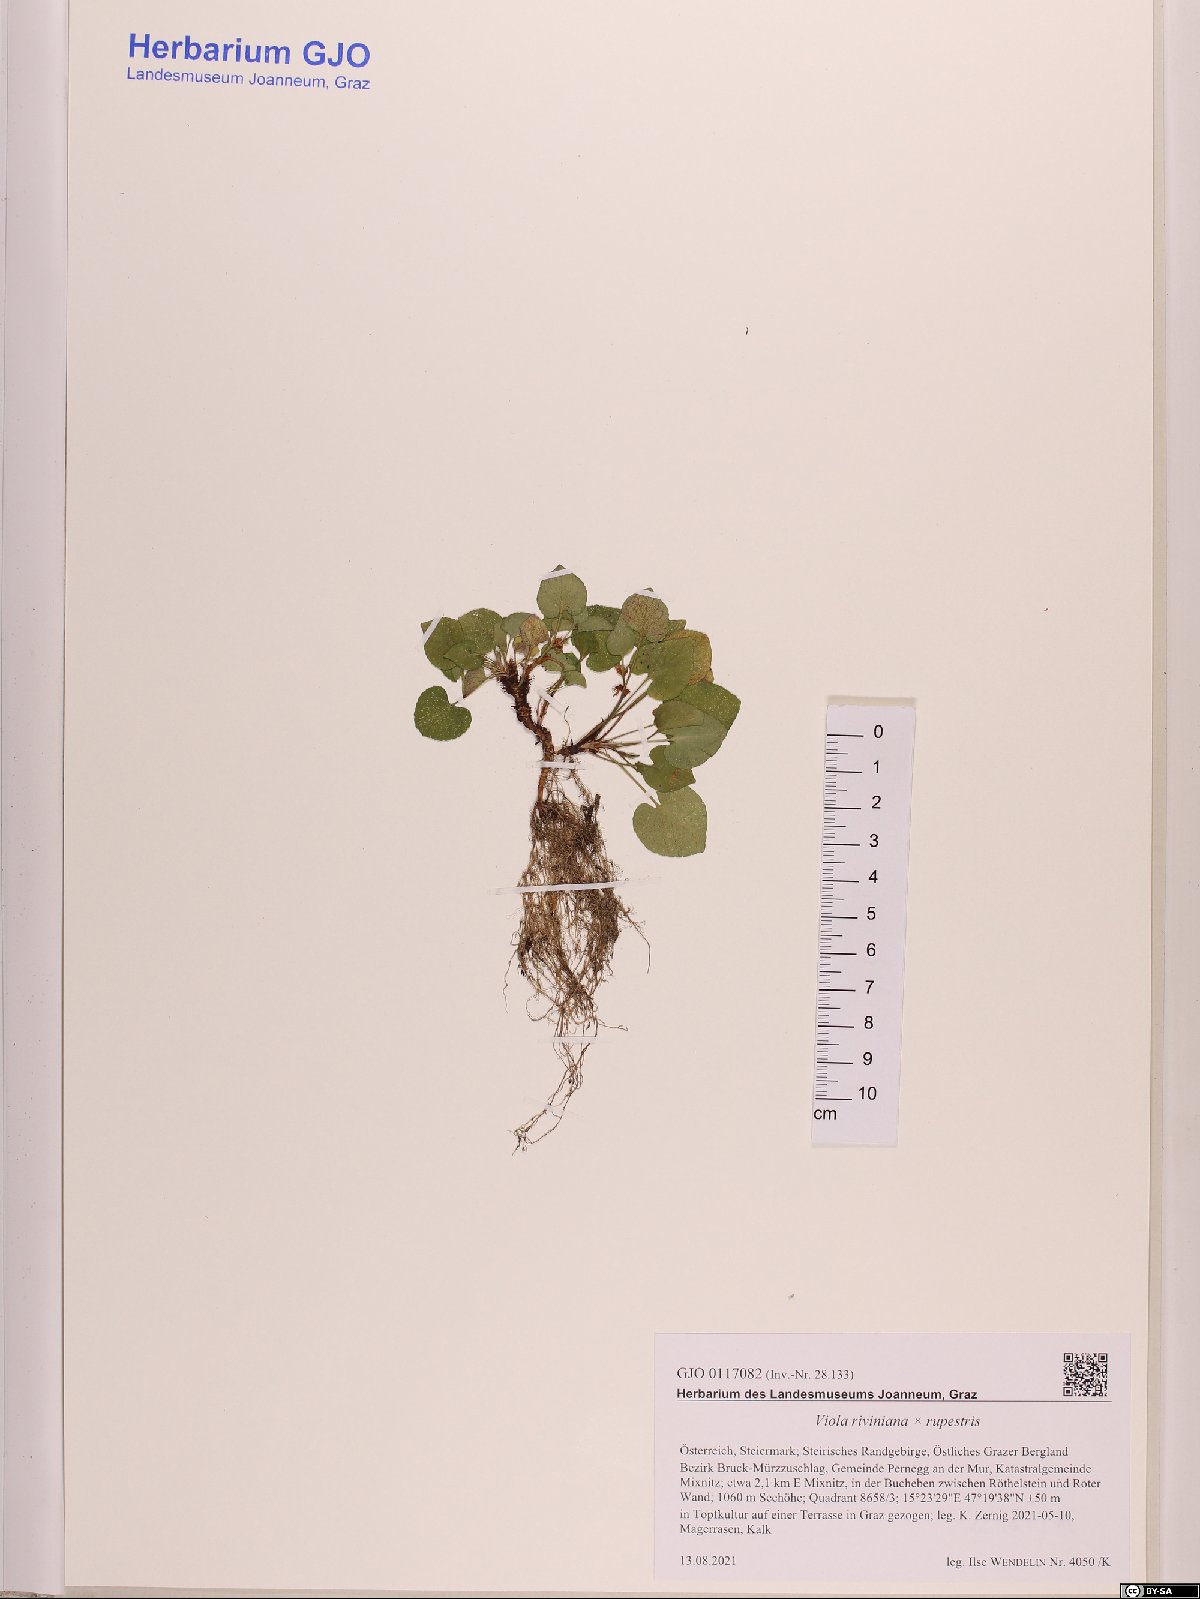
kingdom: Plantae
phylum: Tracheophyta
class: Magnoliopsida
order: Malpighiales
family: Violaceae
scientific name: Violaceae
